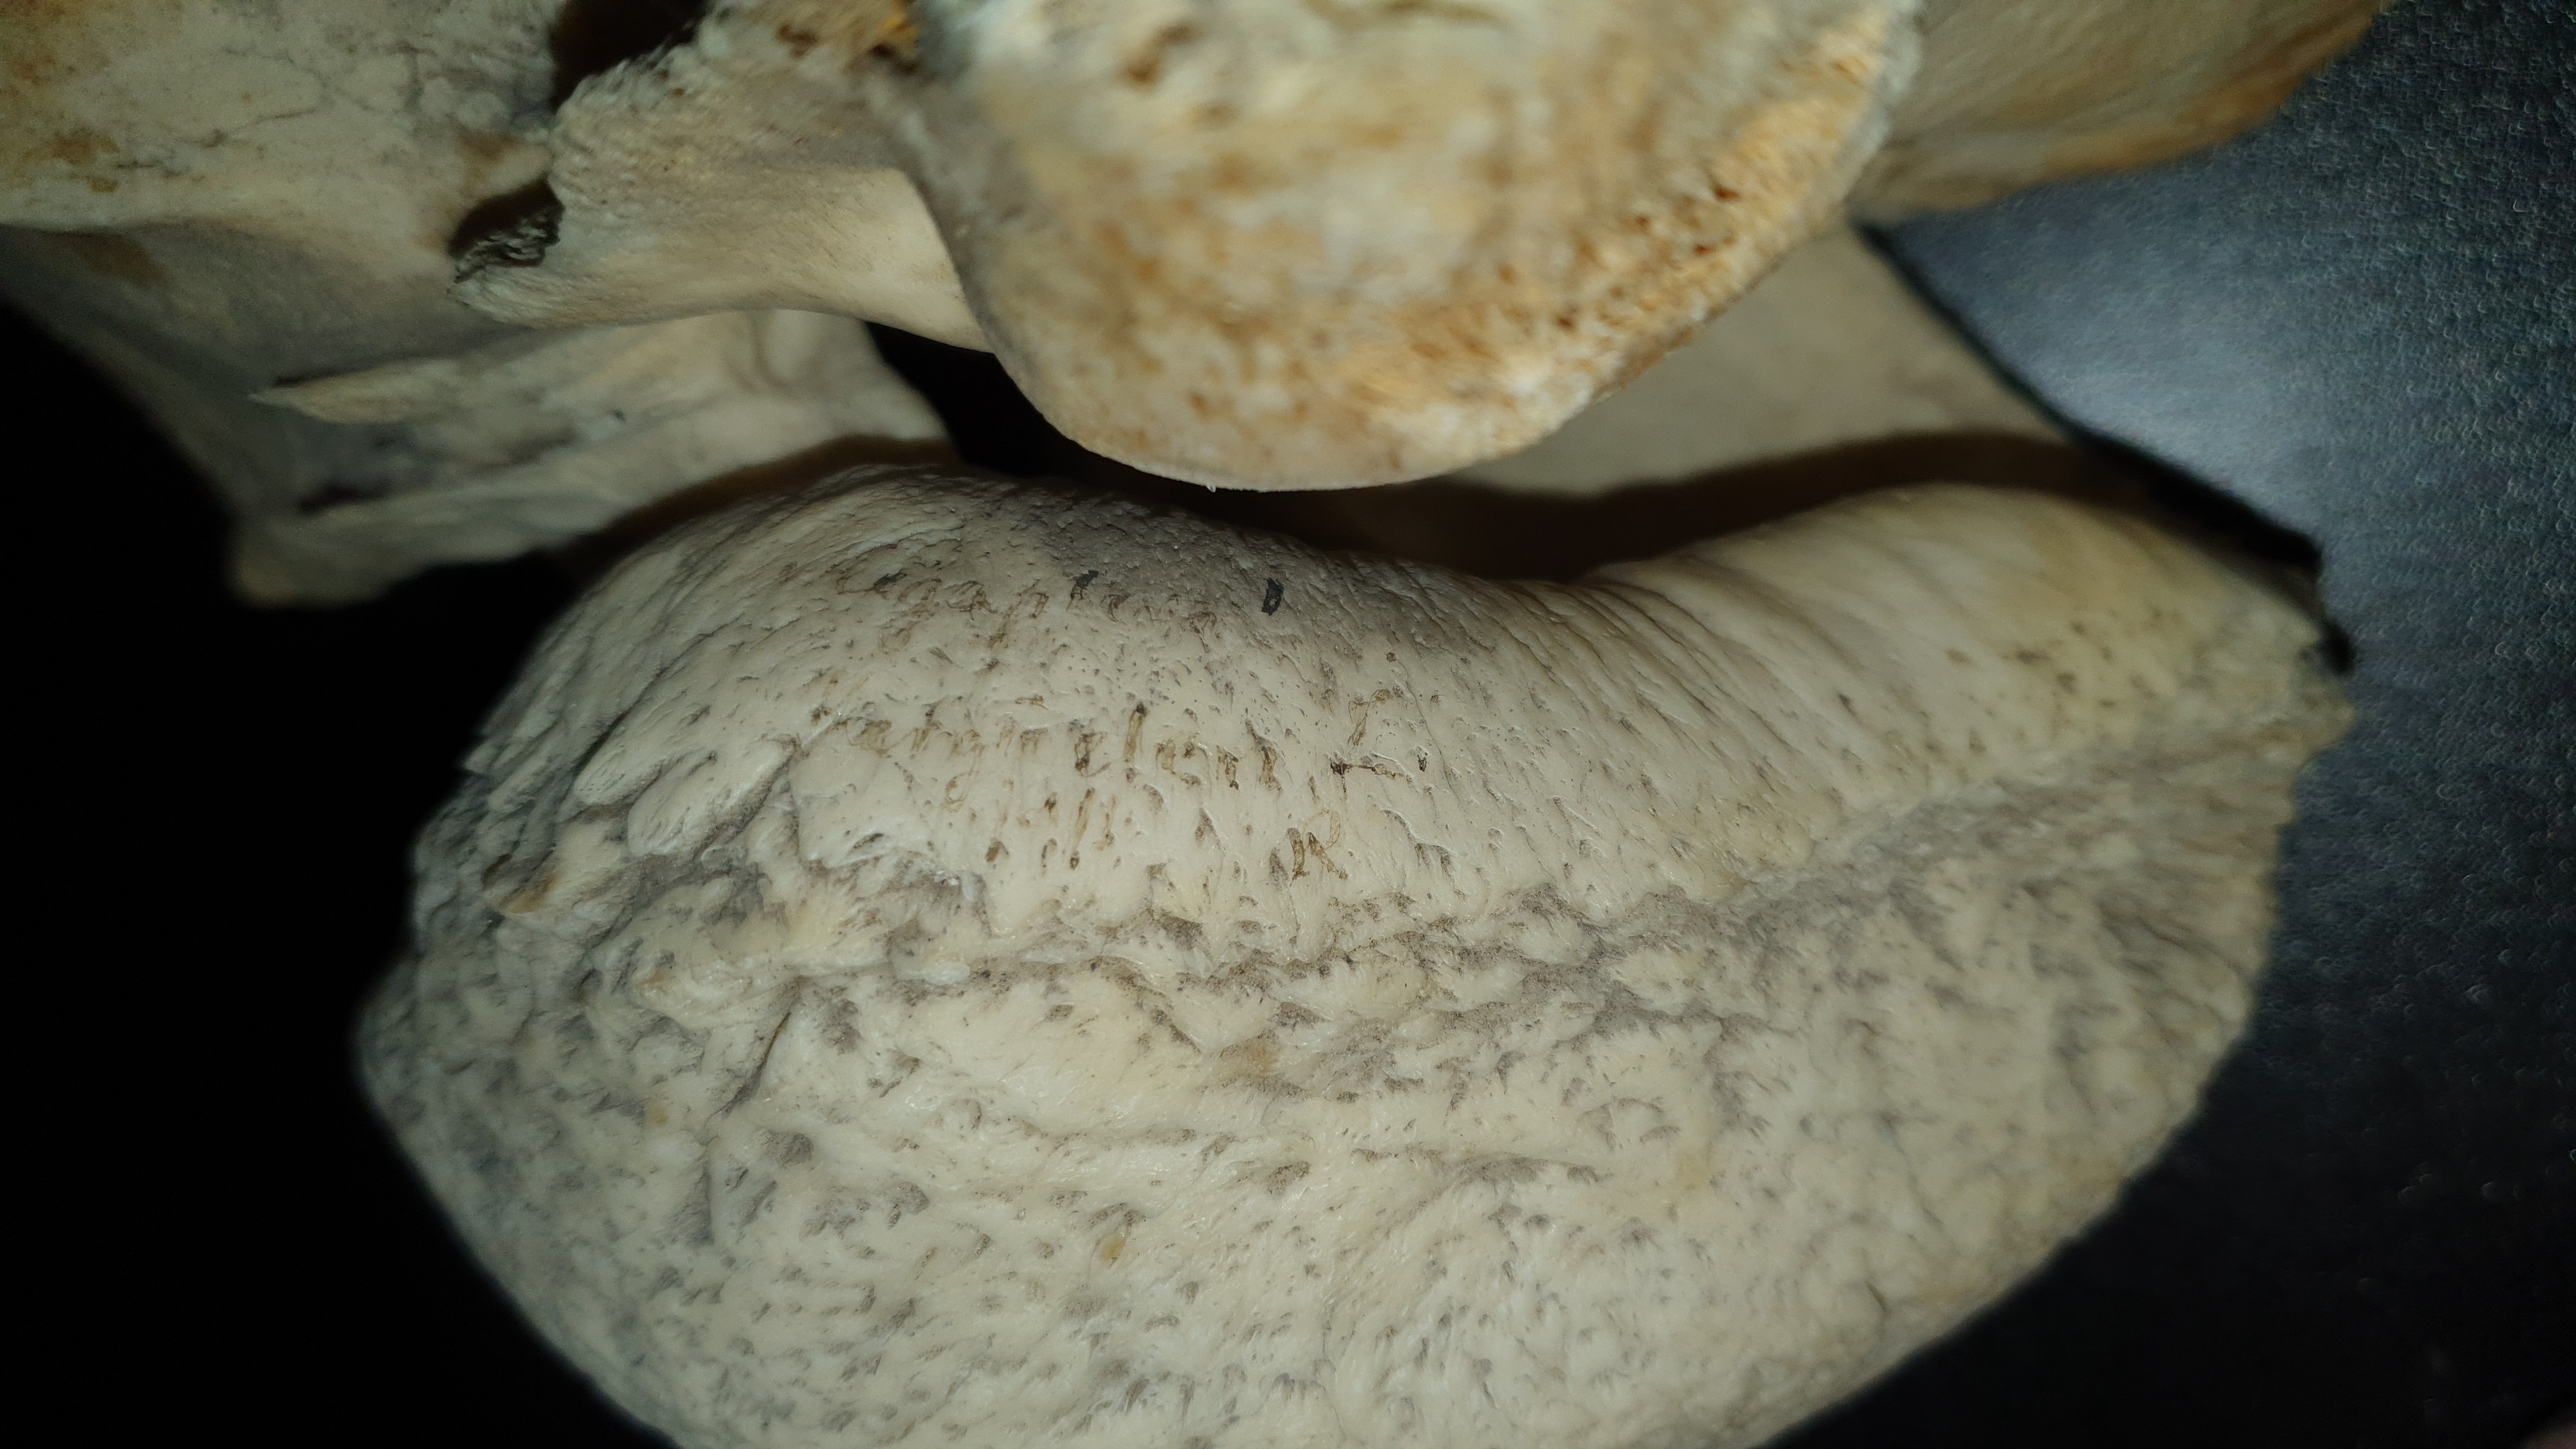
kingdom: Animalia
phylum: Chordata
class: Mammalia
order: Cetacea
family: Balaenopteridae
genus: Megaptera
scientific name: Megaptera novaeangliae
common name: Humpback whale
